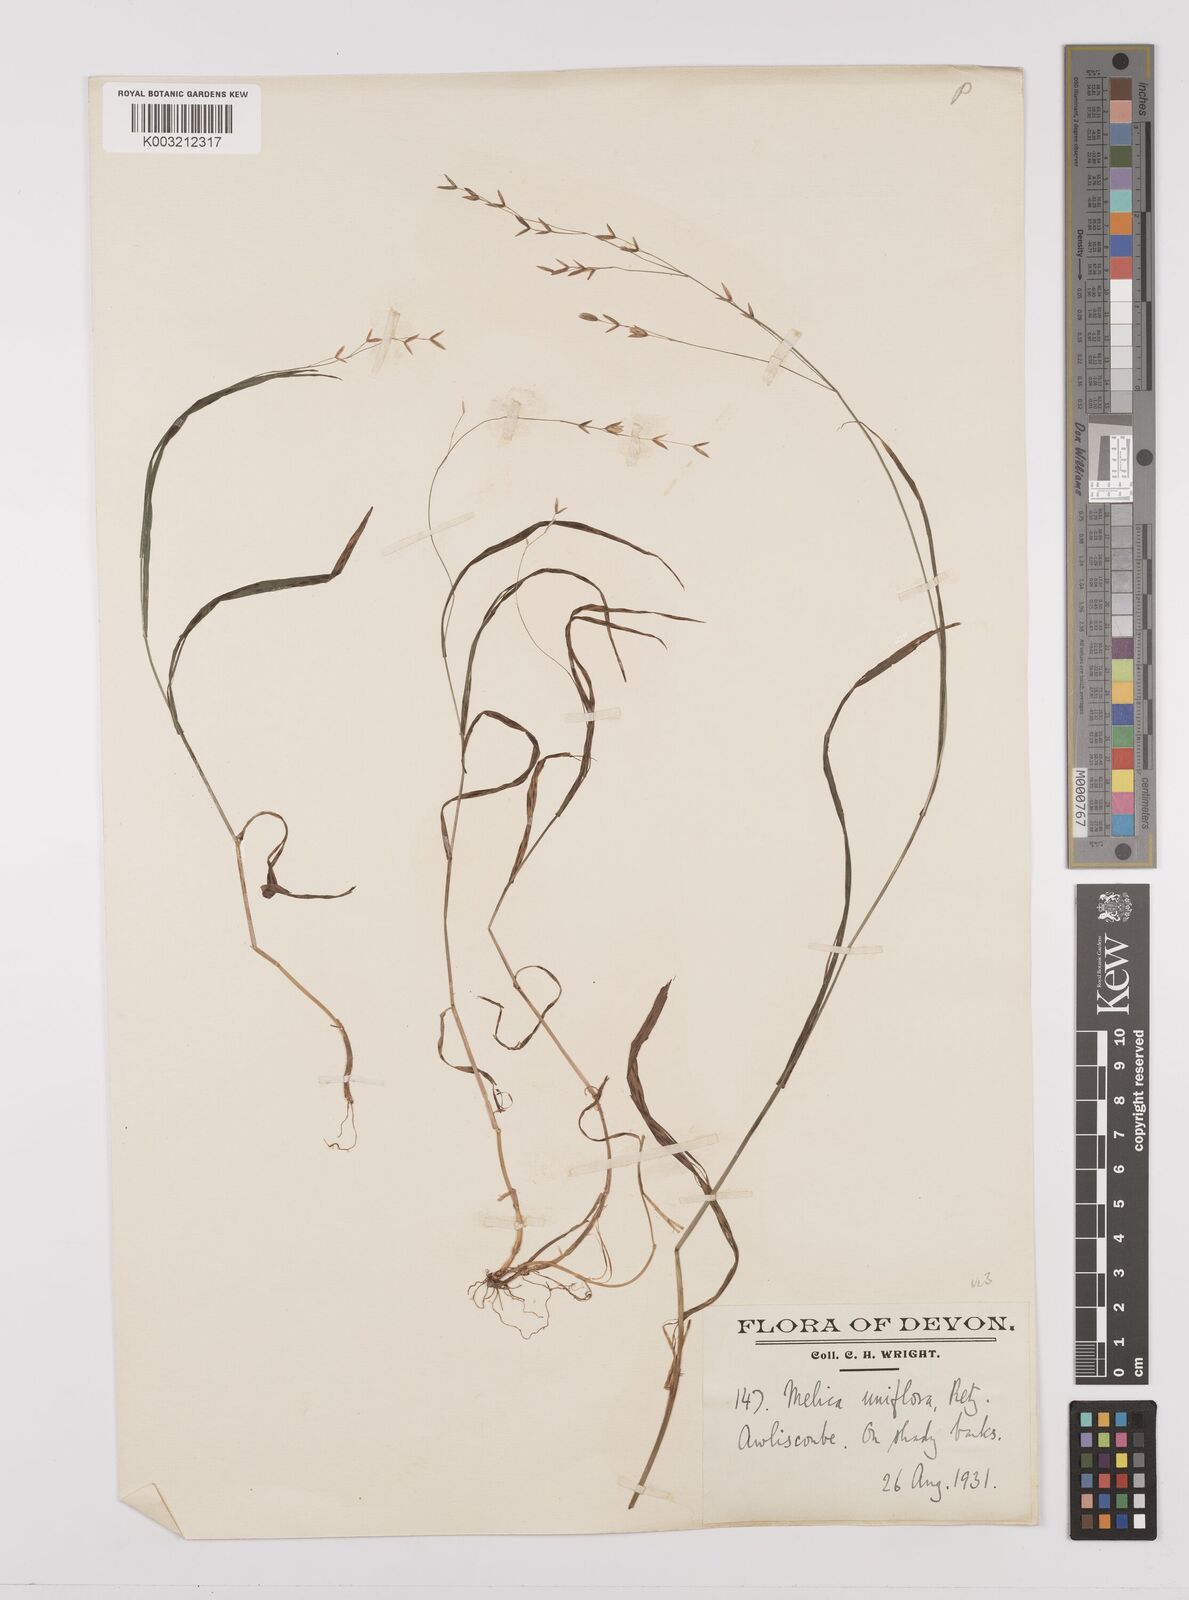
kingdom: Plantae
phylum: Tracheophyta
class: Liliopsida
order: Poales
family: Poaceae
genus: Melica
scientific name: Melica uniflora
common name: Wood melick
